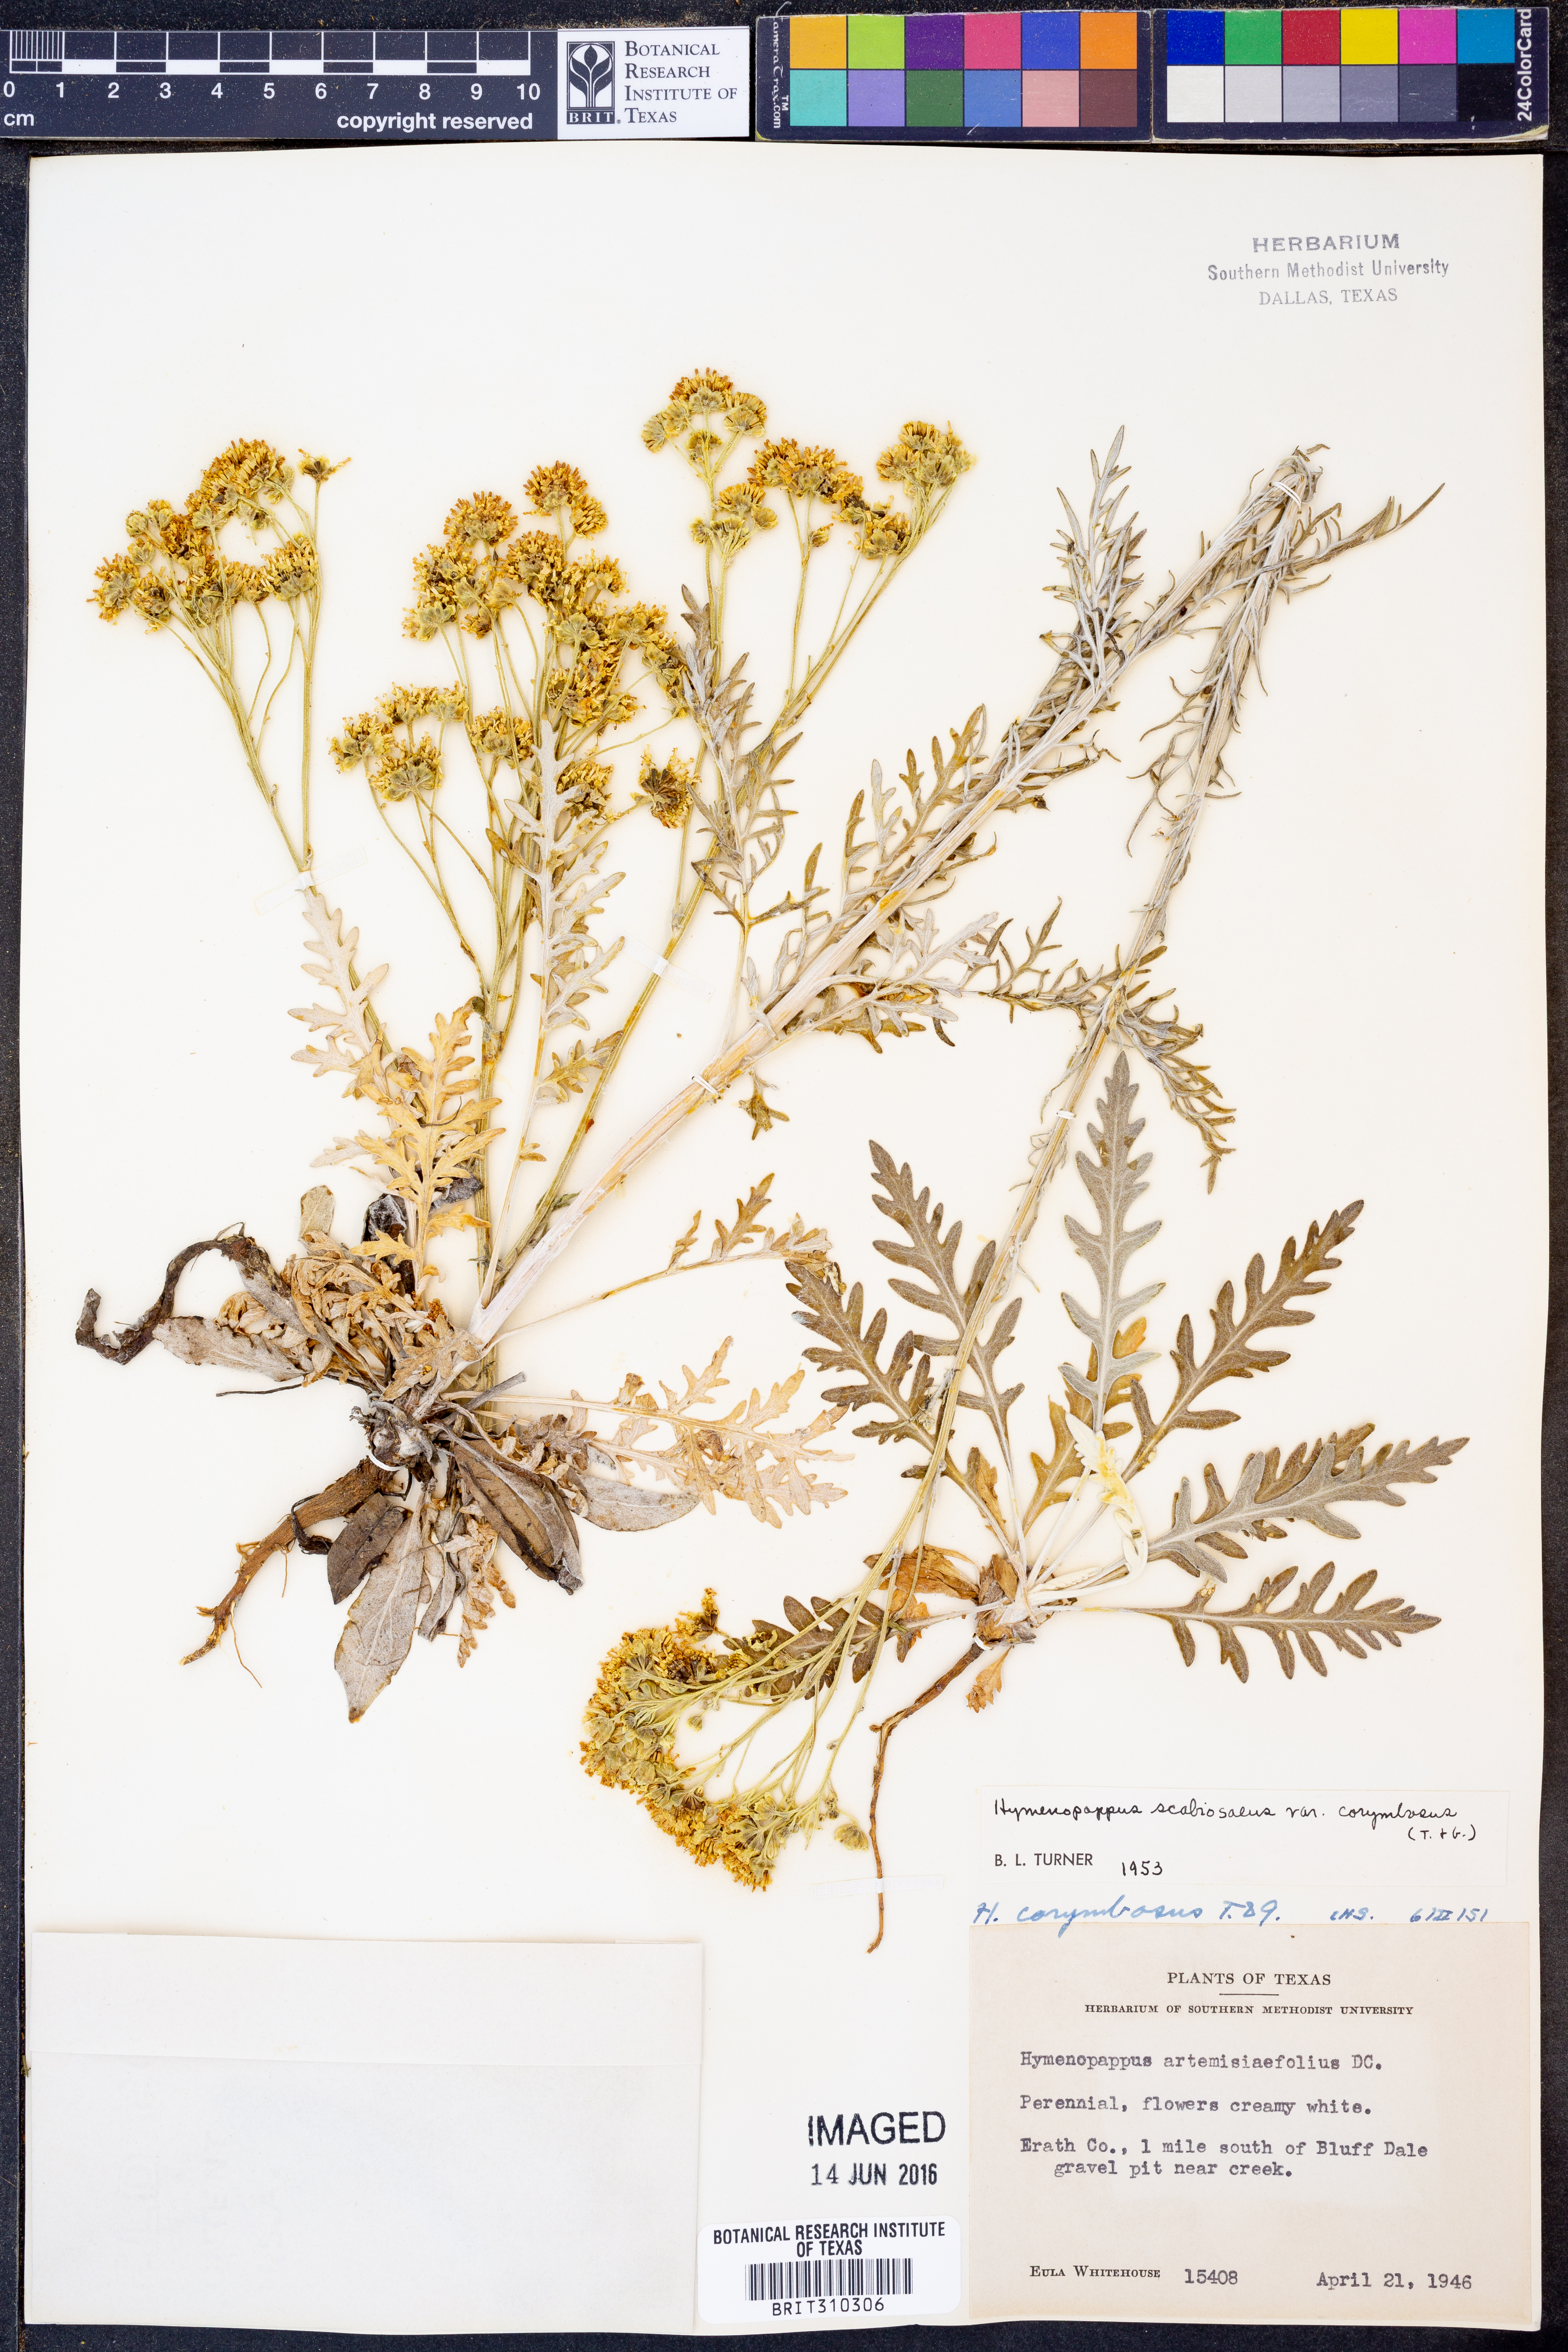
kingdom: Plantae
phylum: Tracheophyta
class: Magnoliopsida
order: Asterales
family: Asteraceae
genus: Hymenopappus
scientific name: Hymenopappus scabiosaeus
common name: Carolina woollywhite
